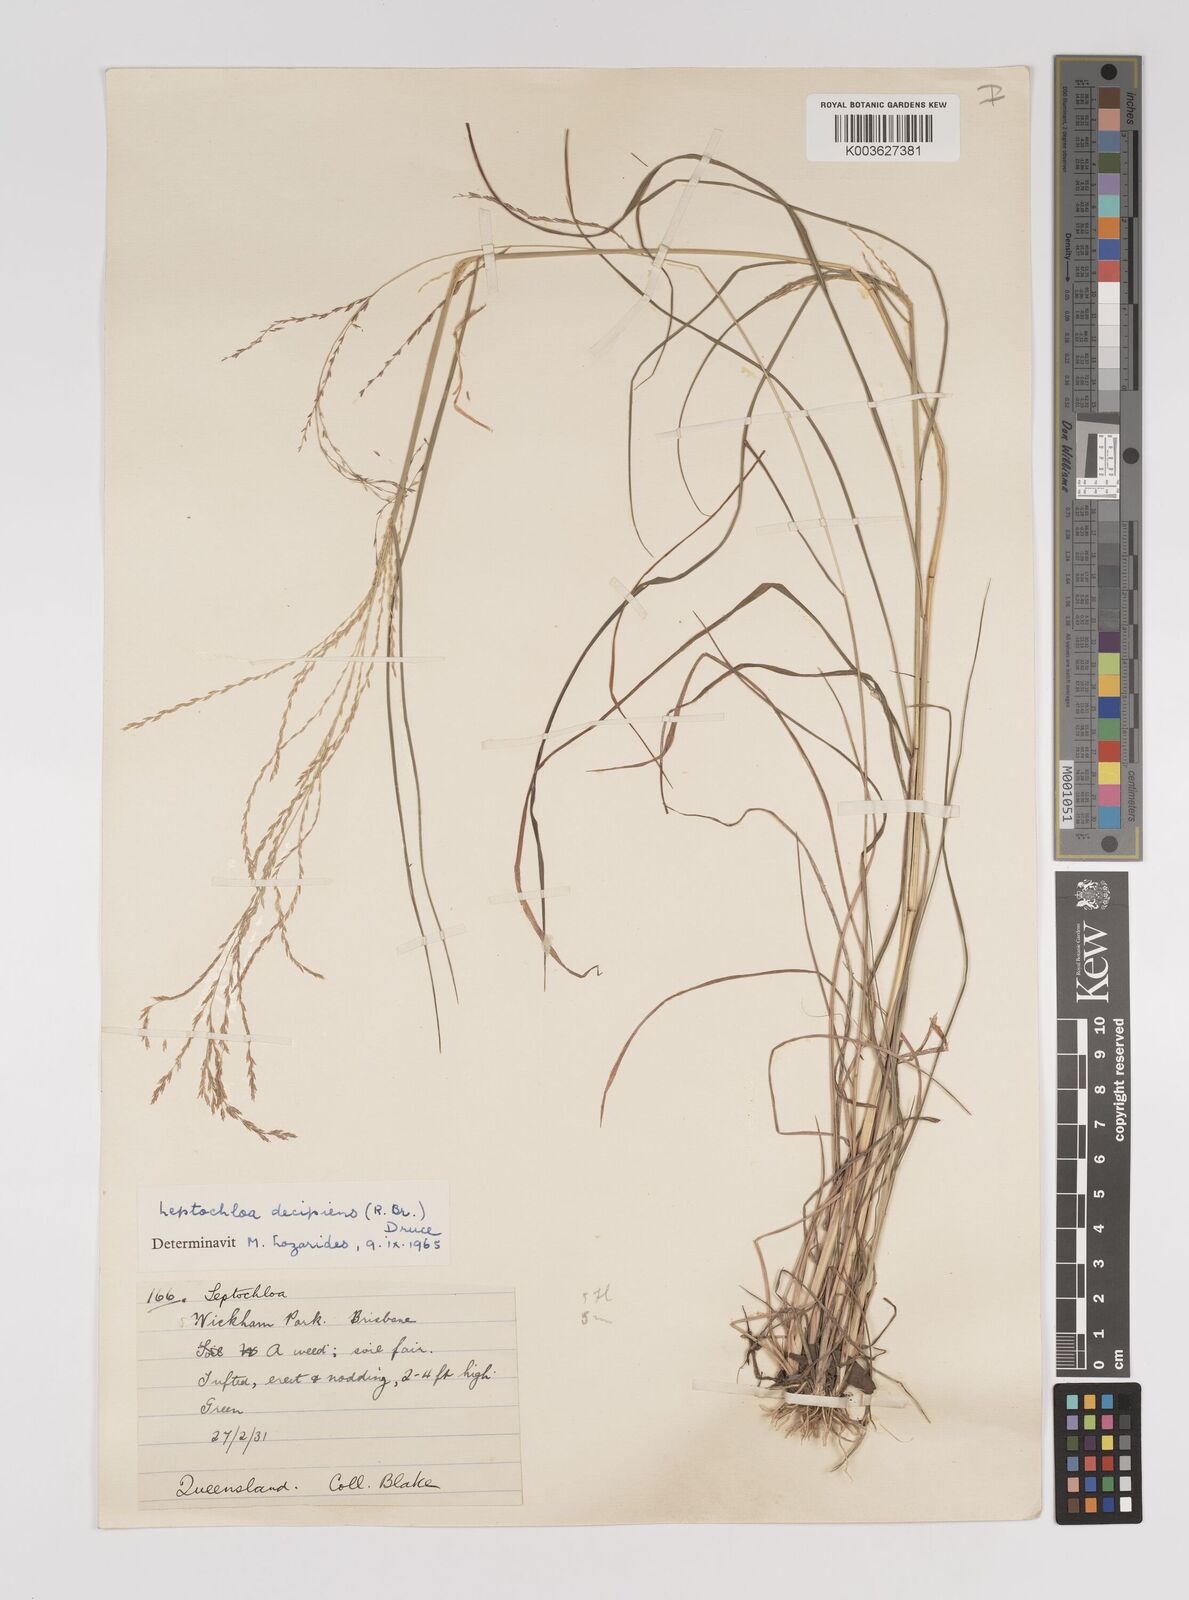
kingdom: Plantae
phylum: Tracheophyta
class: Liliopsida
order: Poales
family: Poaceae
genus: Leptochloa
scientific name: Leptochloa decipiens
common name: Australian sprangletop
